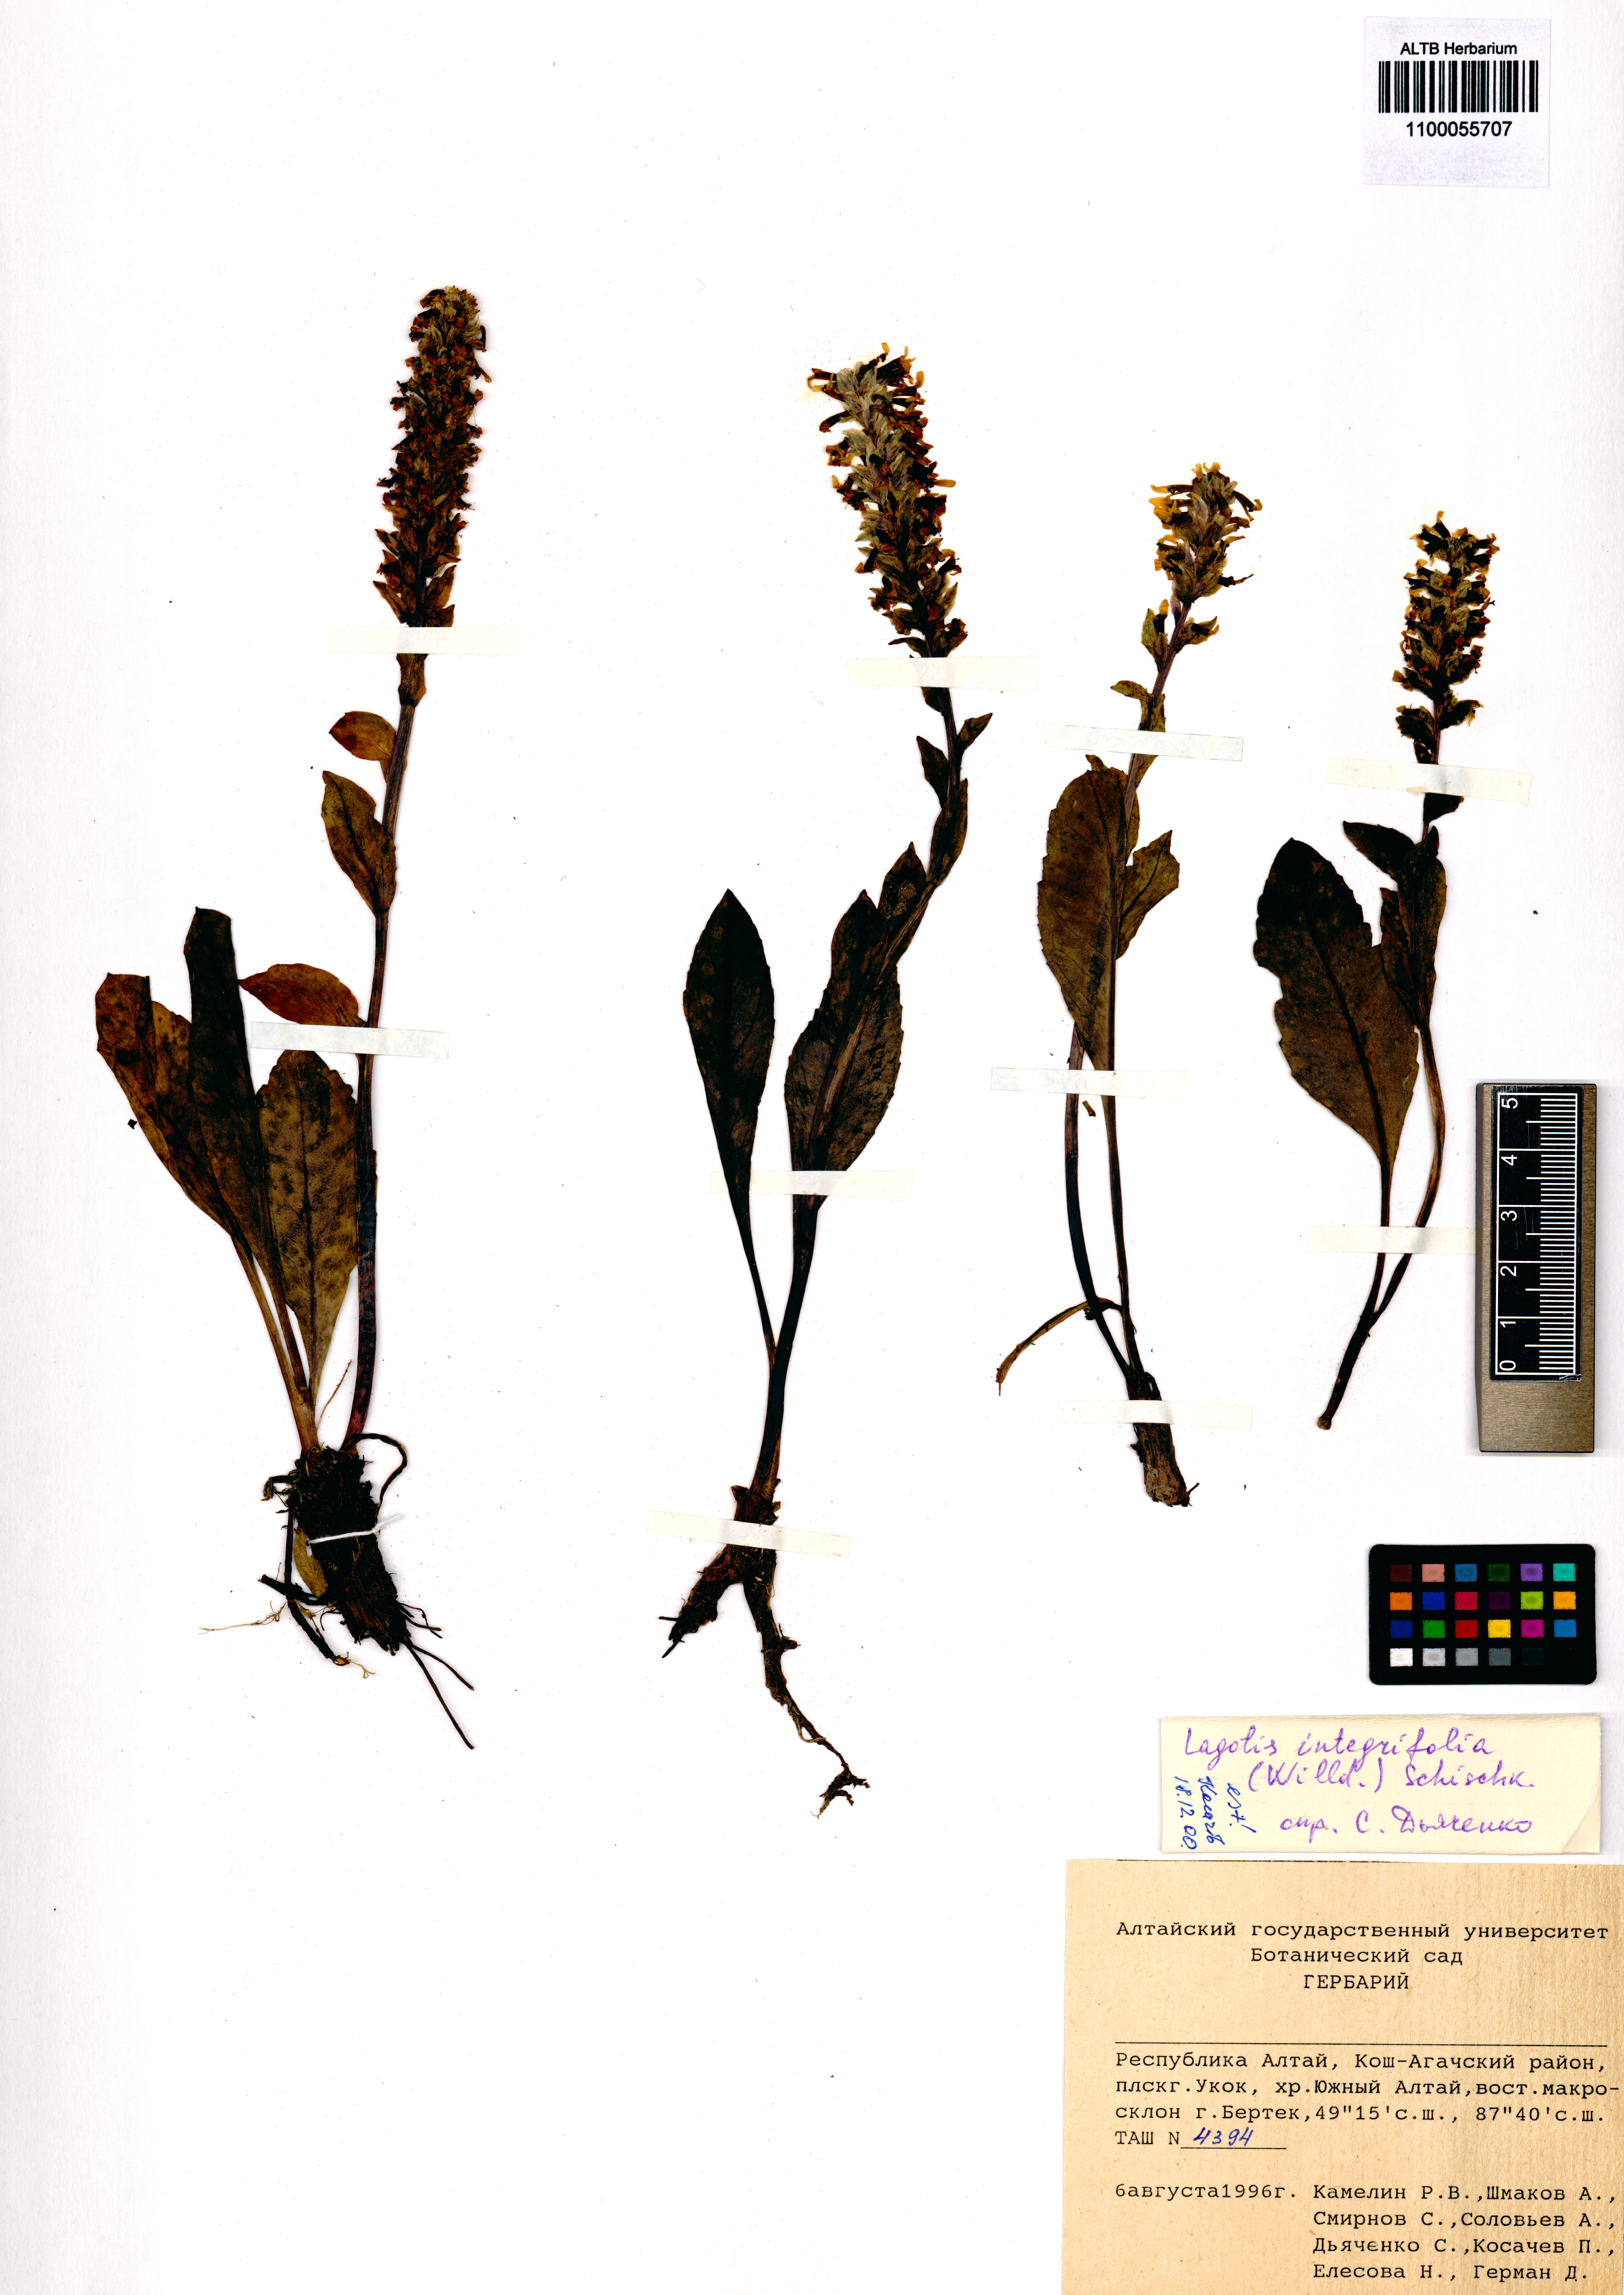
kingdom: Plantae
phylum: Tracheophyta
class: Magnoliopsida
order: Lamiales
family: Plantaginaceae
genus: Lagotis
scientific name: Lagotis integrifolia
